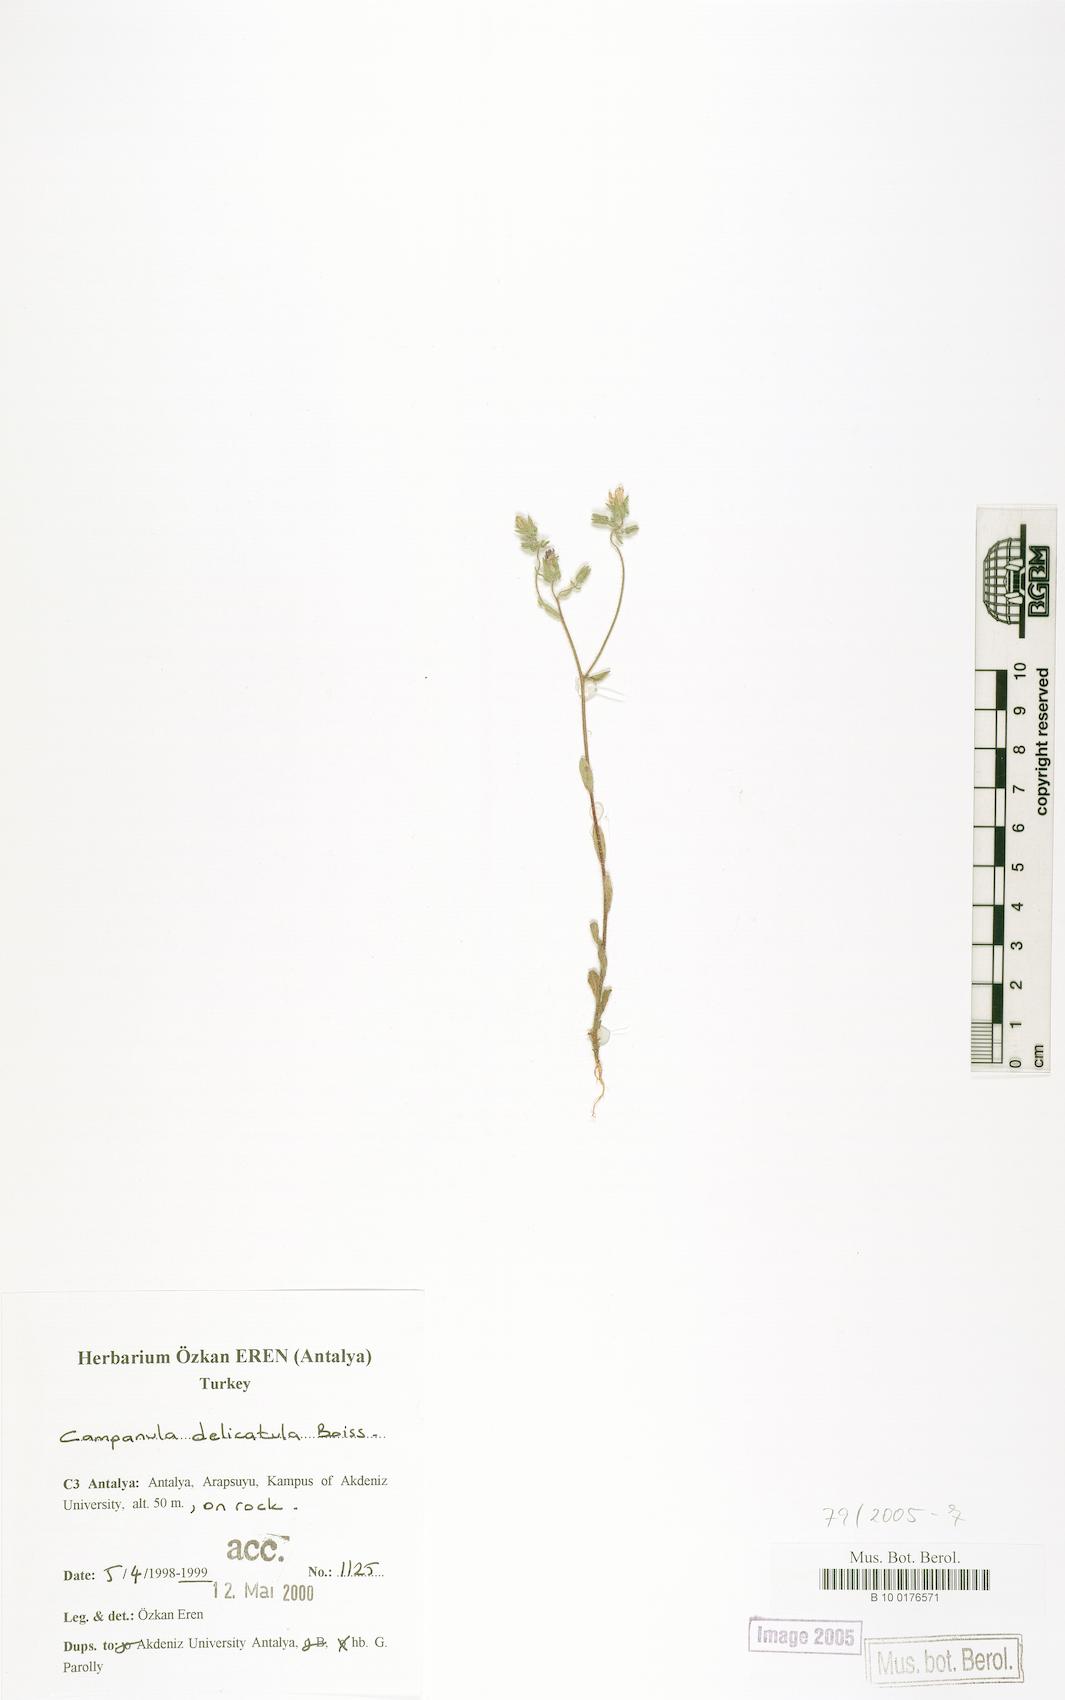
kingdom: Plantae
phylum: Tracheophyta
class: Magnoliopsida
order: Asterales
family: Campanulaceae
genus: Campanula
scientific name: Campanula delicatula
